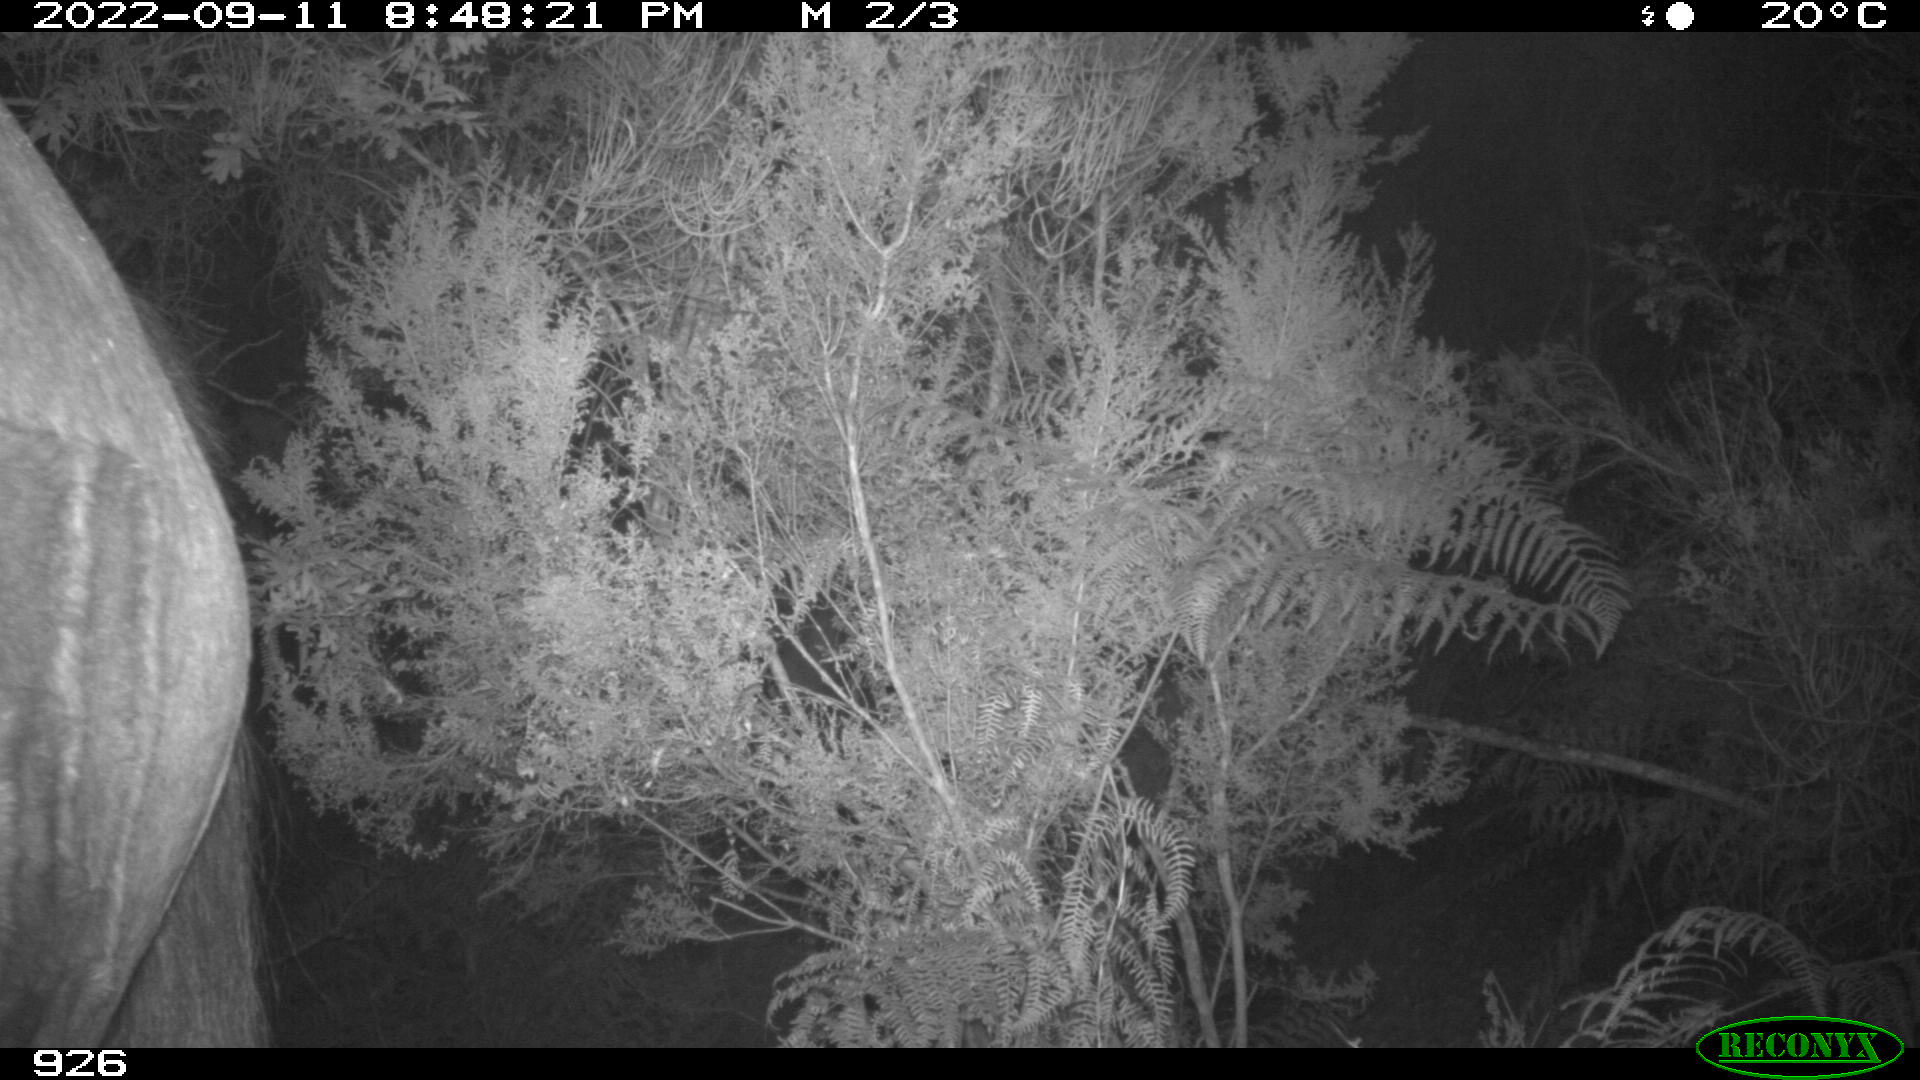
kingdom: Animalia
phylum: Chordata
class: Mammalia
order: Perissodactyla
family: Equidae
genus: Equus
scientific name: Equus caballus
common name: Horse
